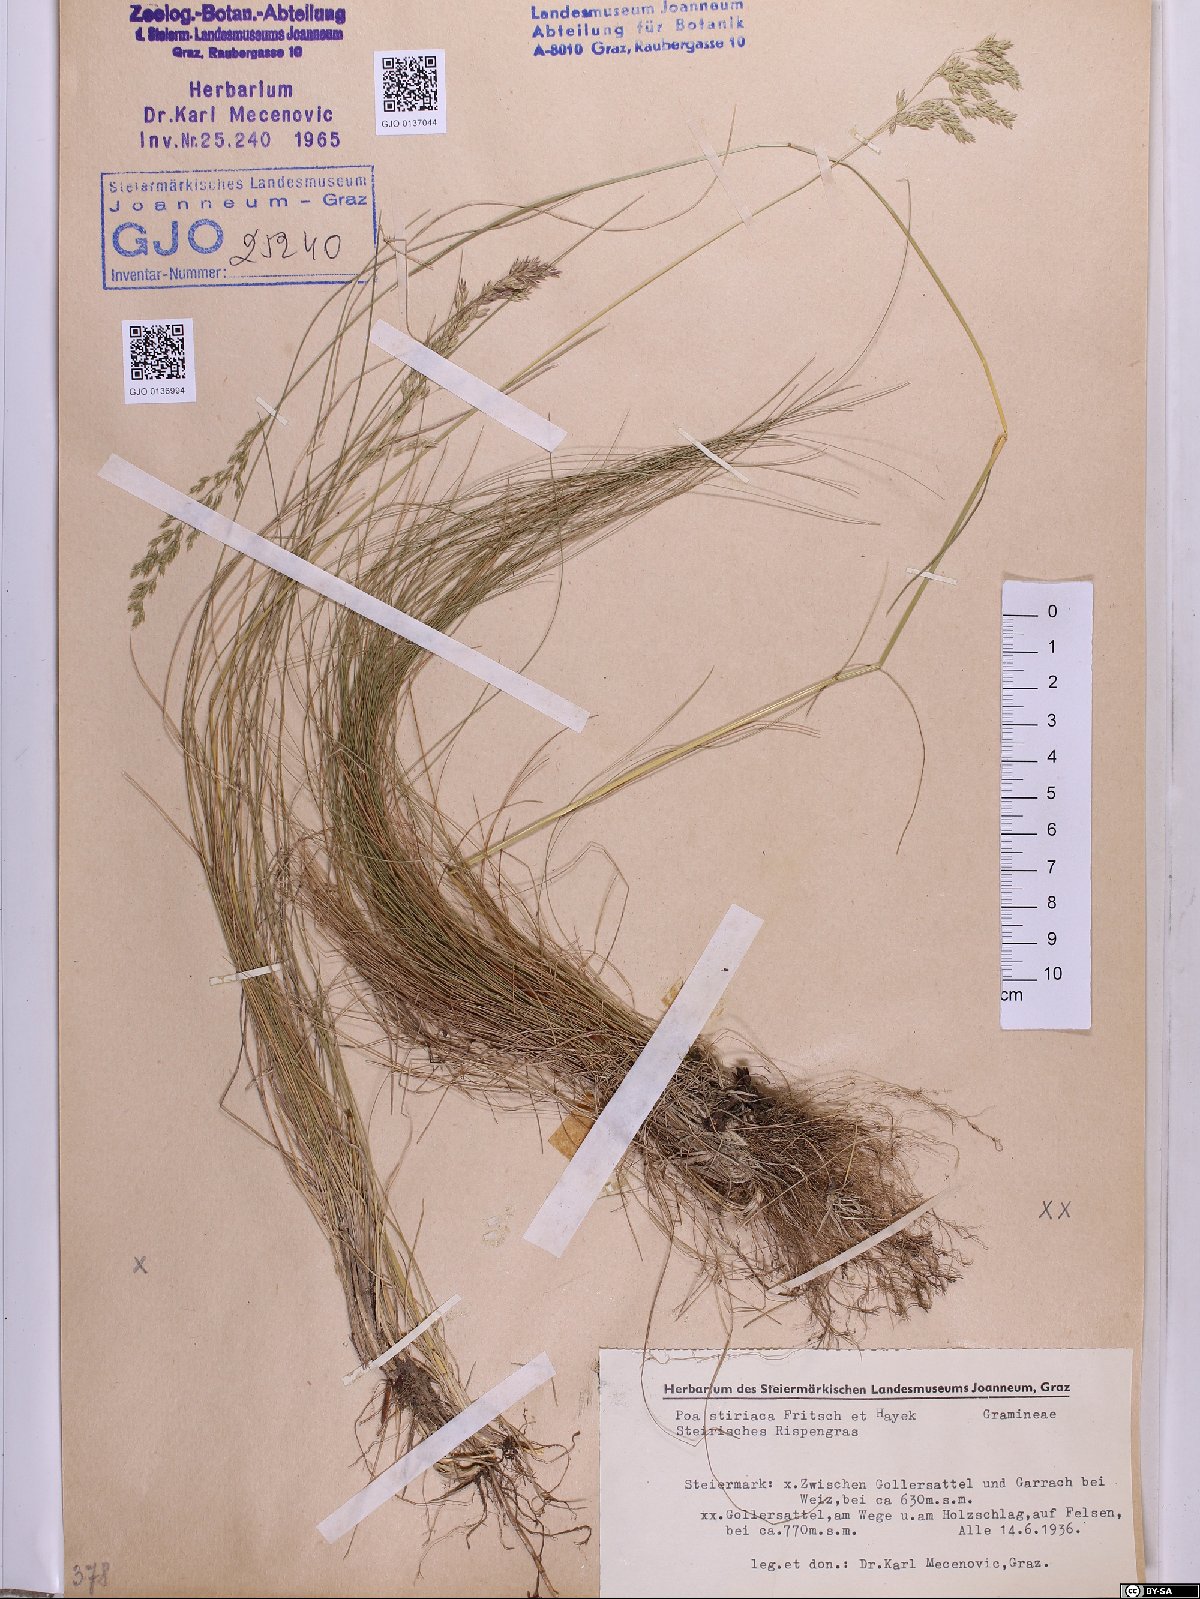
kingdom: Plantae
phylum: Tracheophyta
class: Liliopsida
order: Poales
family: Poaceae
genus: Poa
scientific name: Poa stiriaca
